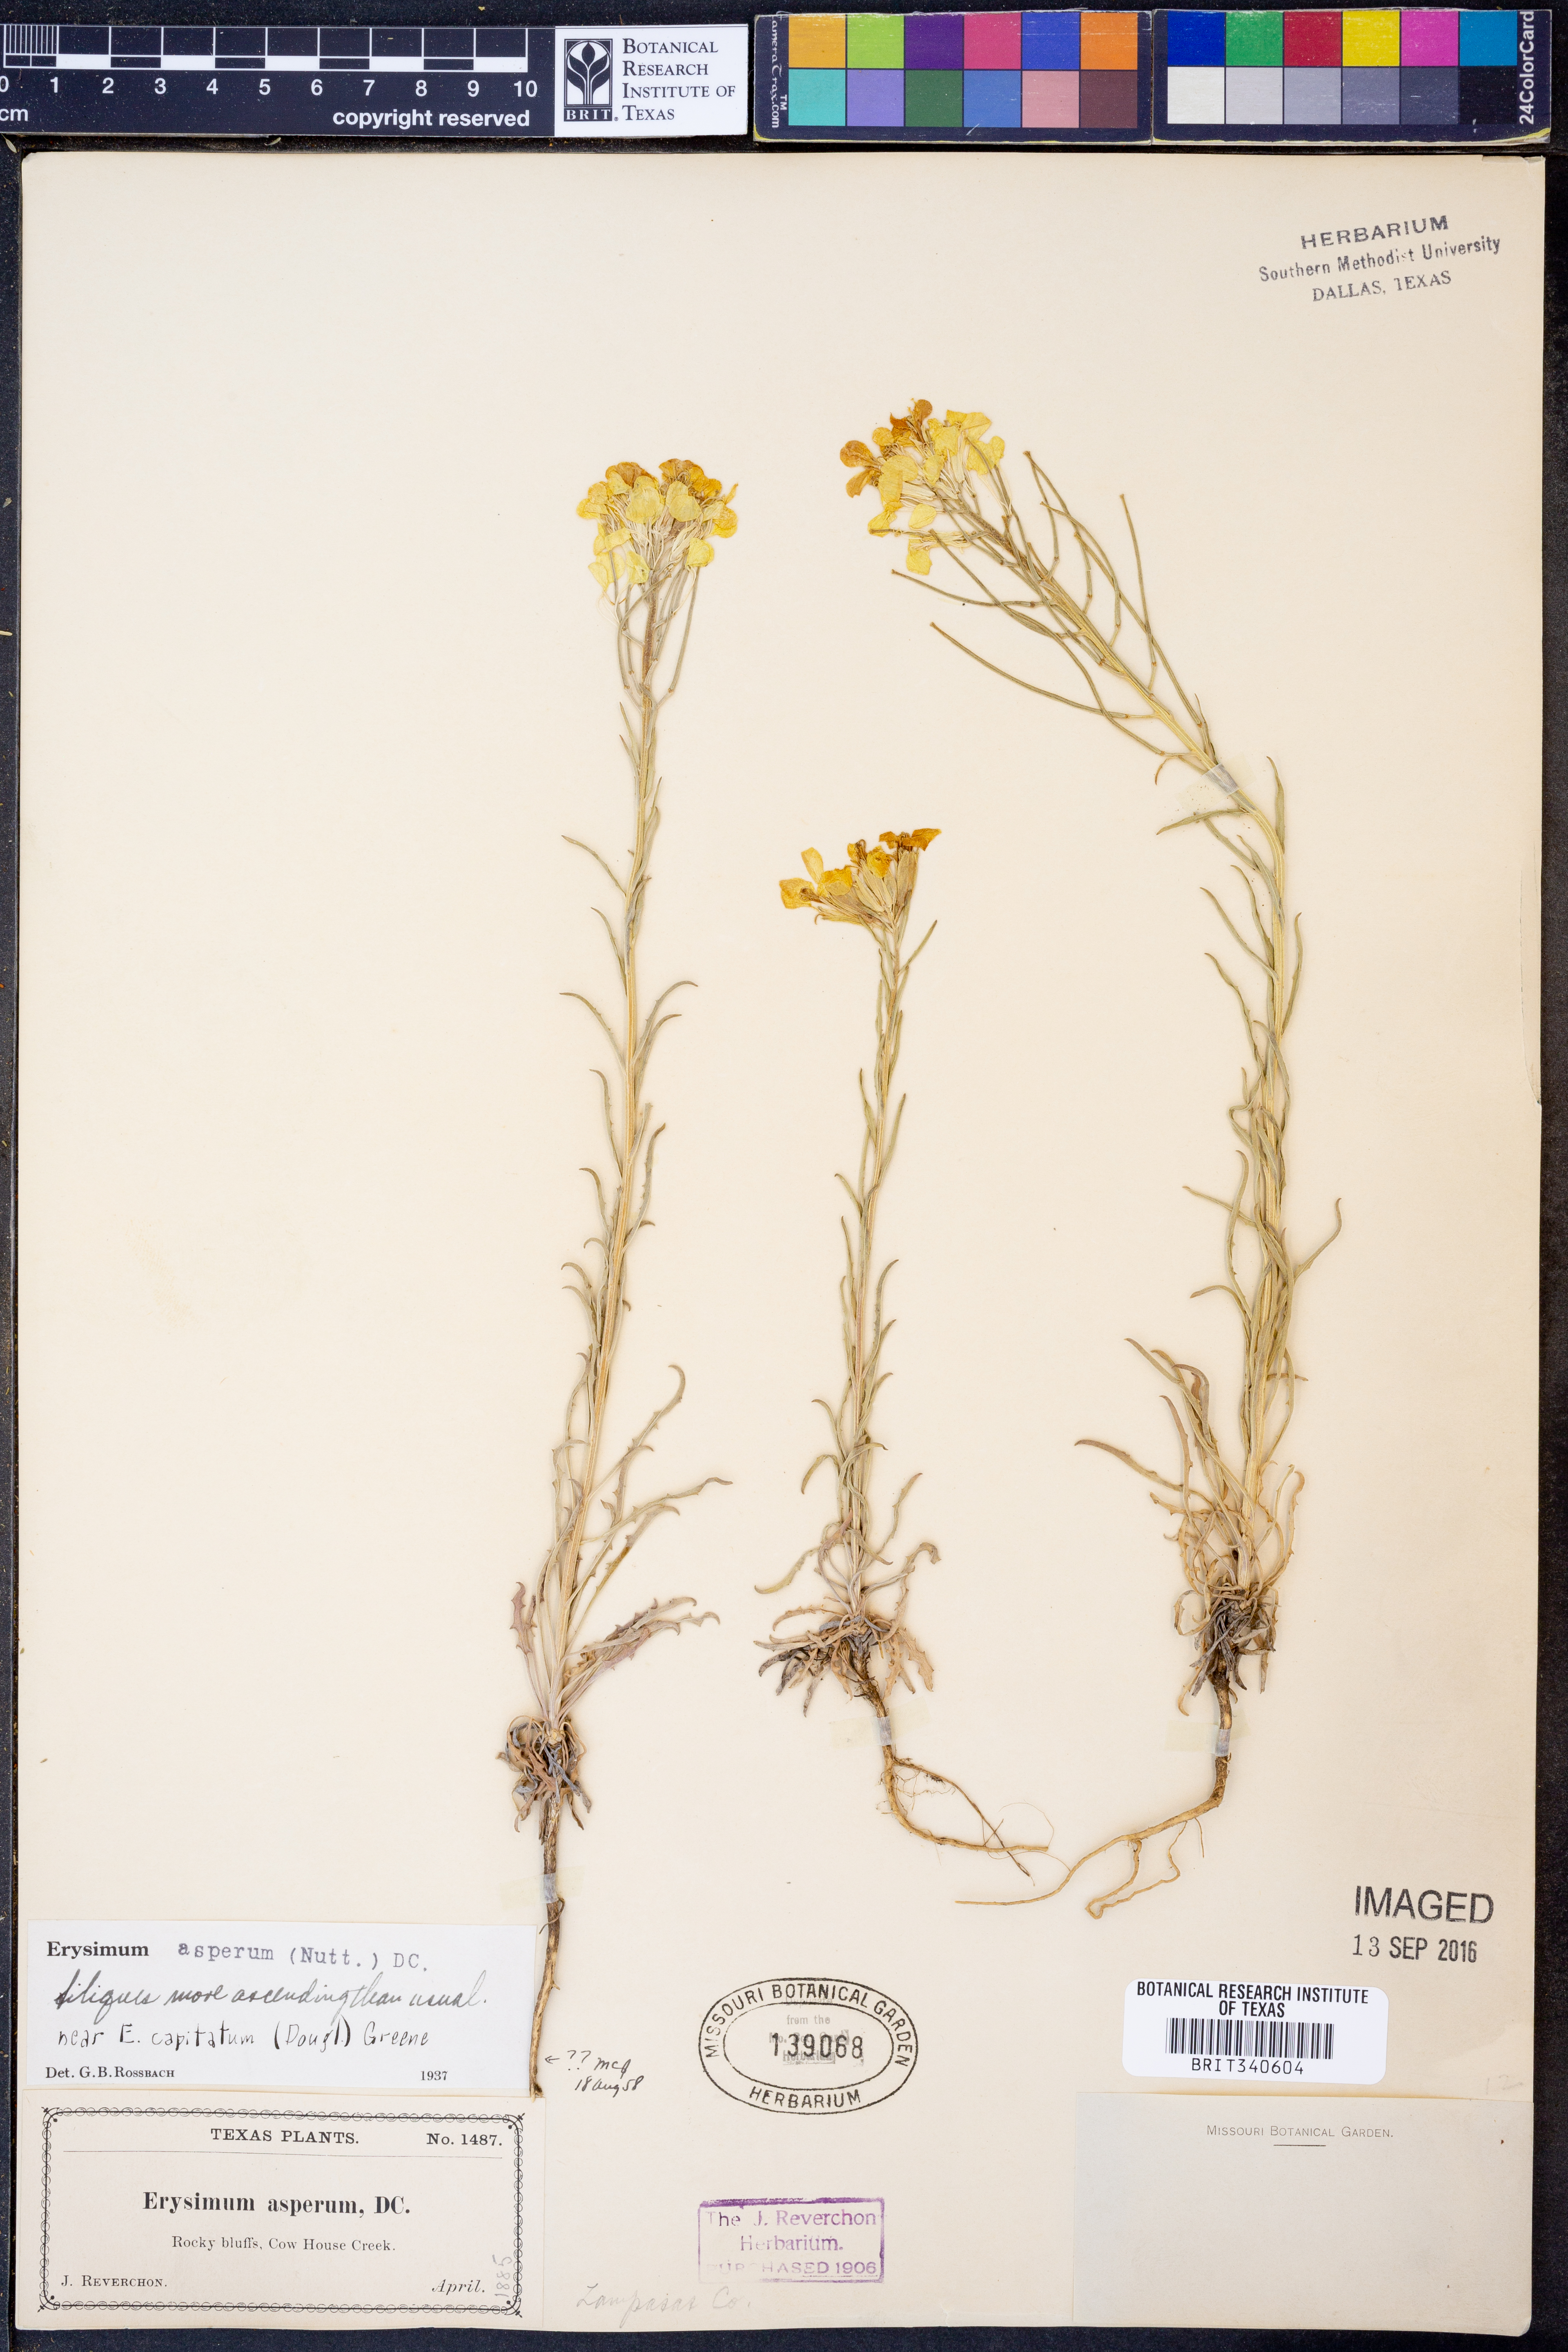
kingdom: Plantae
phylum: Tracheophyta
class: Magnoliopsida
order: Brassicales
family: Brassicaceae
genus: Erysimum
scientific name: Erysimum asperum
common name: Western wallflower
